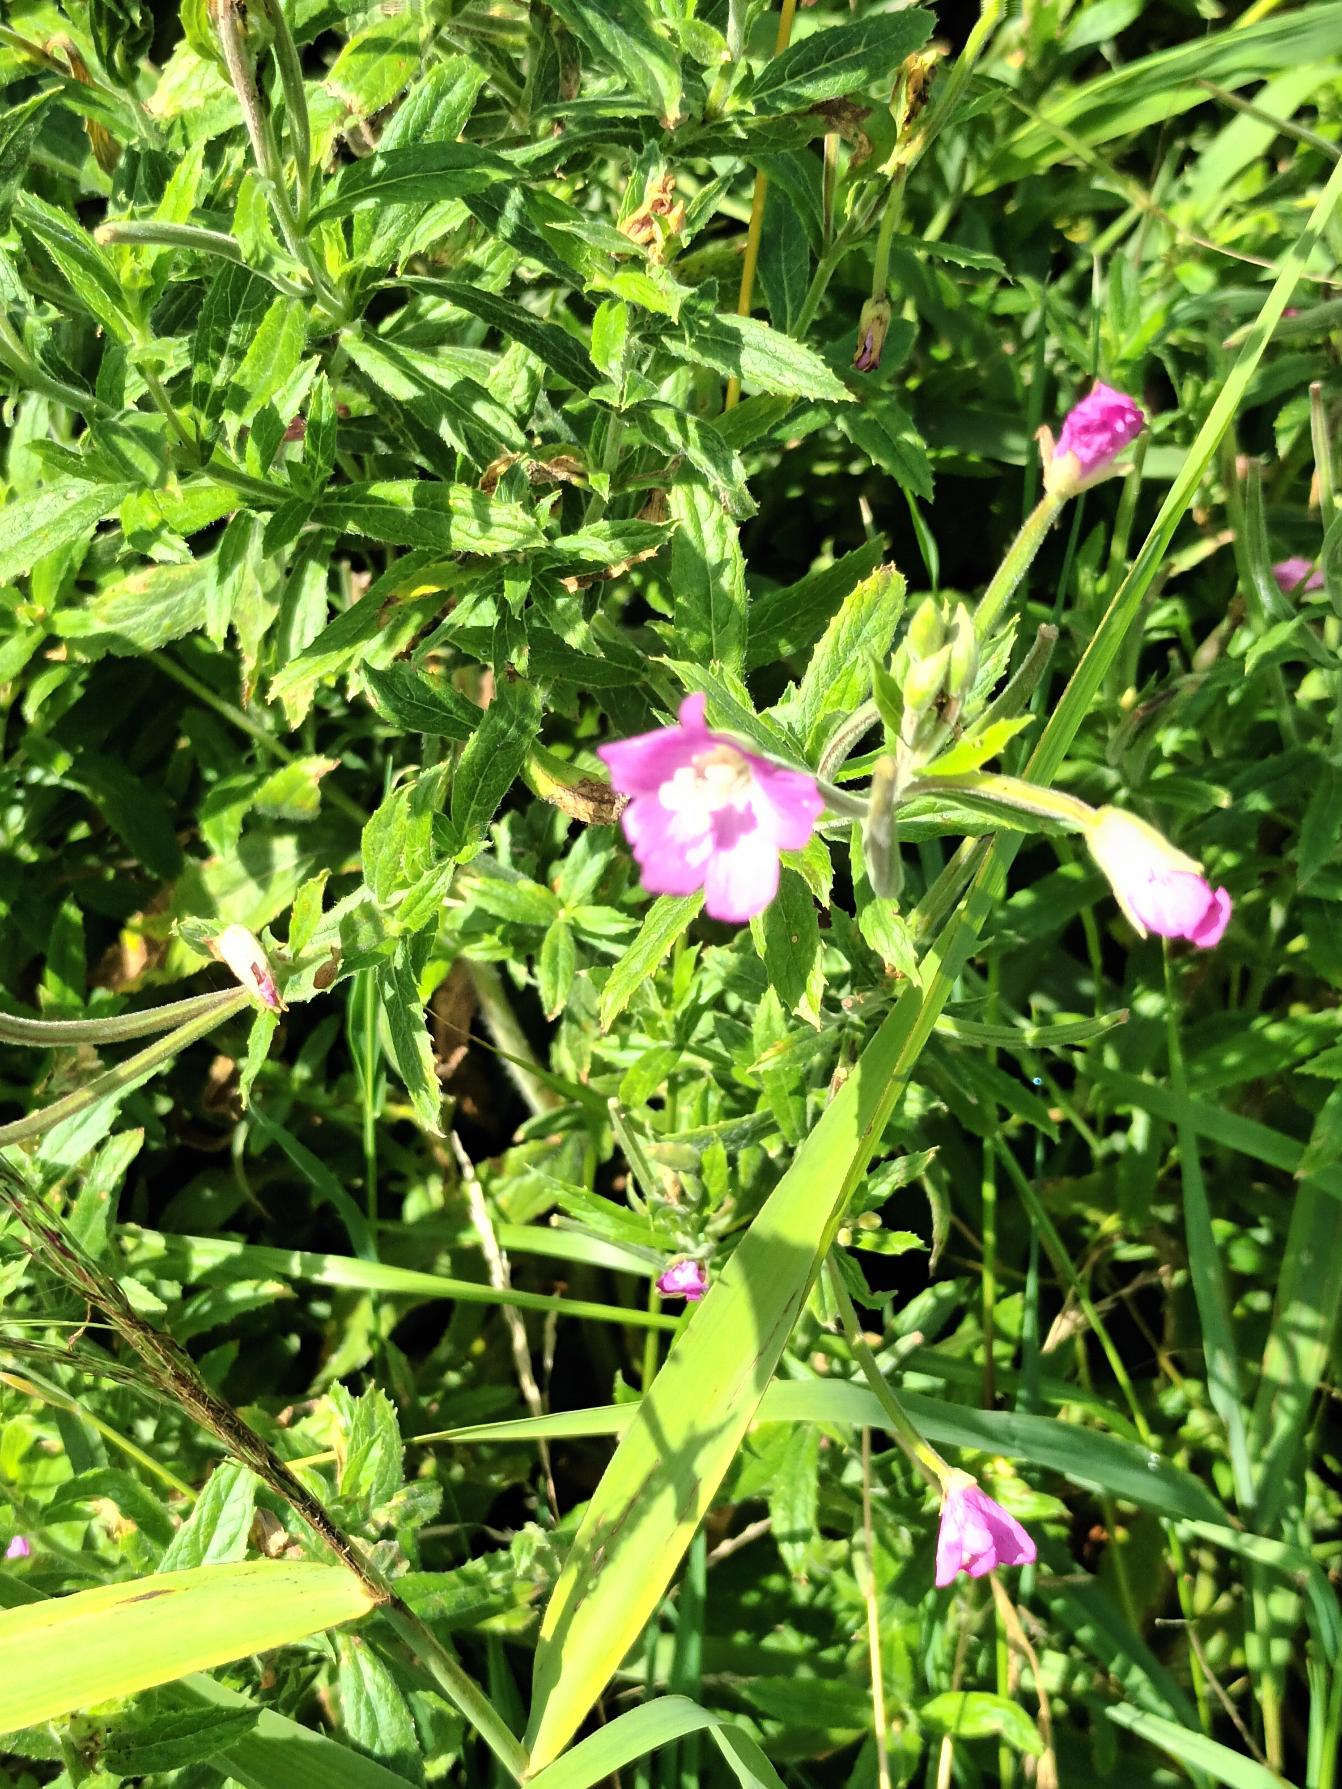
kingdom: Plantae
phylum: Tracheophyta
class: Magnoliopsida
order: Myrtales
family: Onagraceae
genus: Epilobium
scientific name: Epilobium hirsutum
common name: Lådden dueurt
